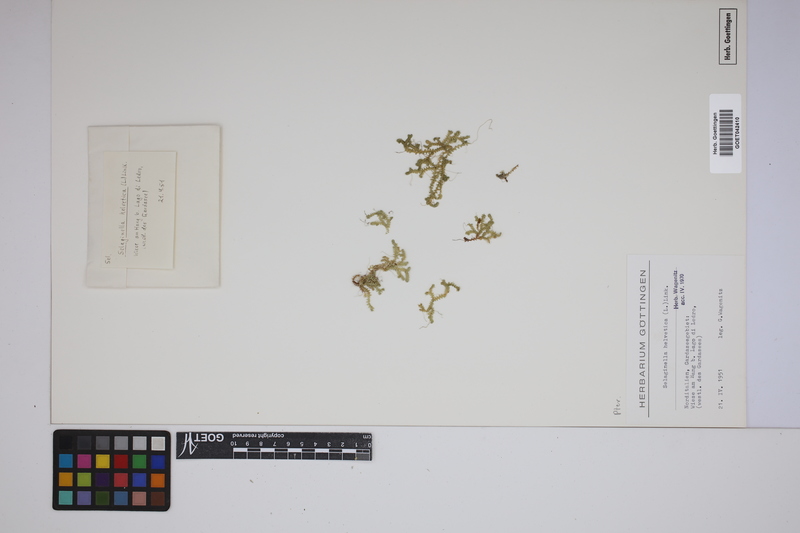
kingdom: Plantae
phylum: Tracheophyta
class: Lycopodiopsida
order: Selaginellales
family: Selaginellaceae
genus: Selaginella
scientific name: Selaginella helvetica
